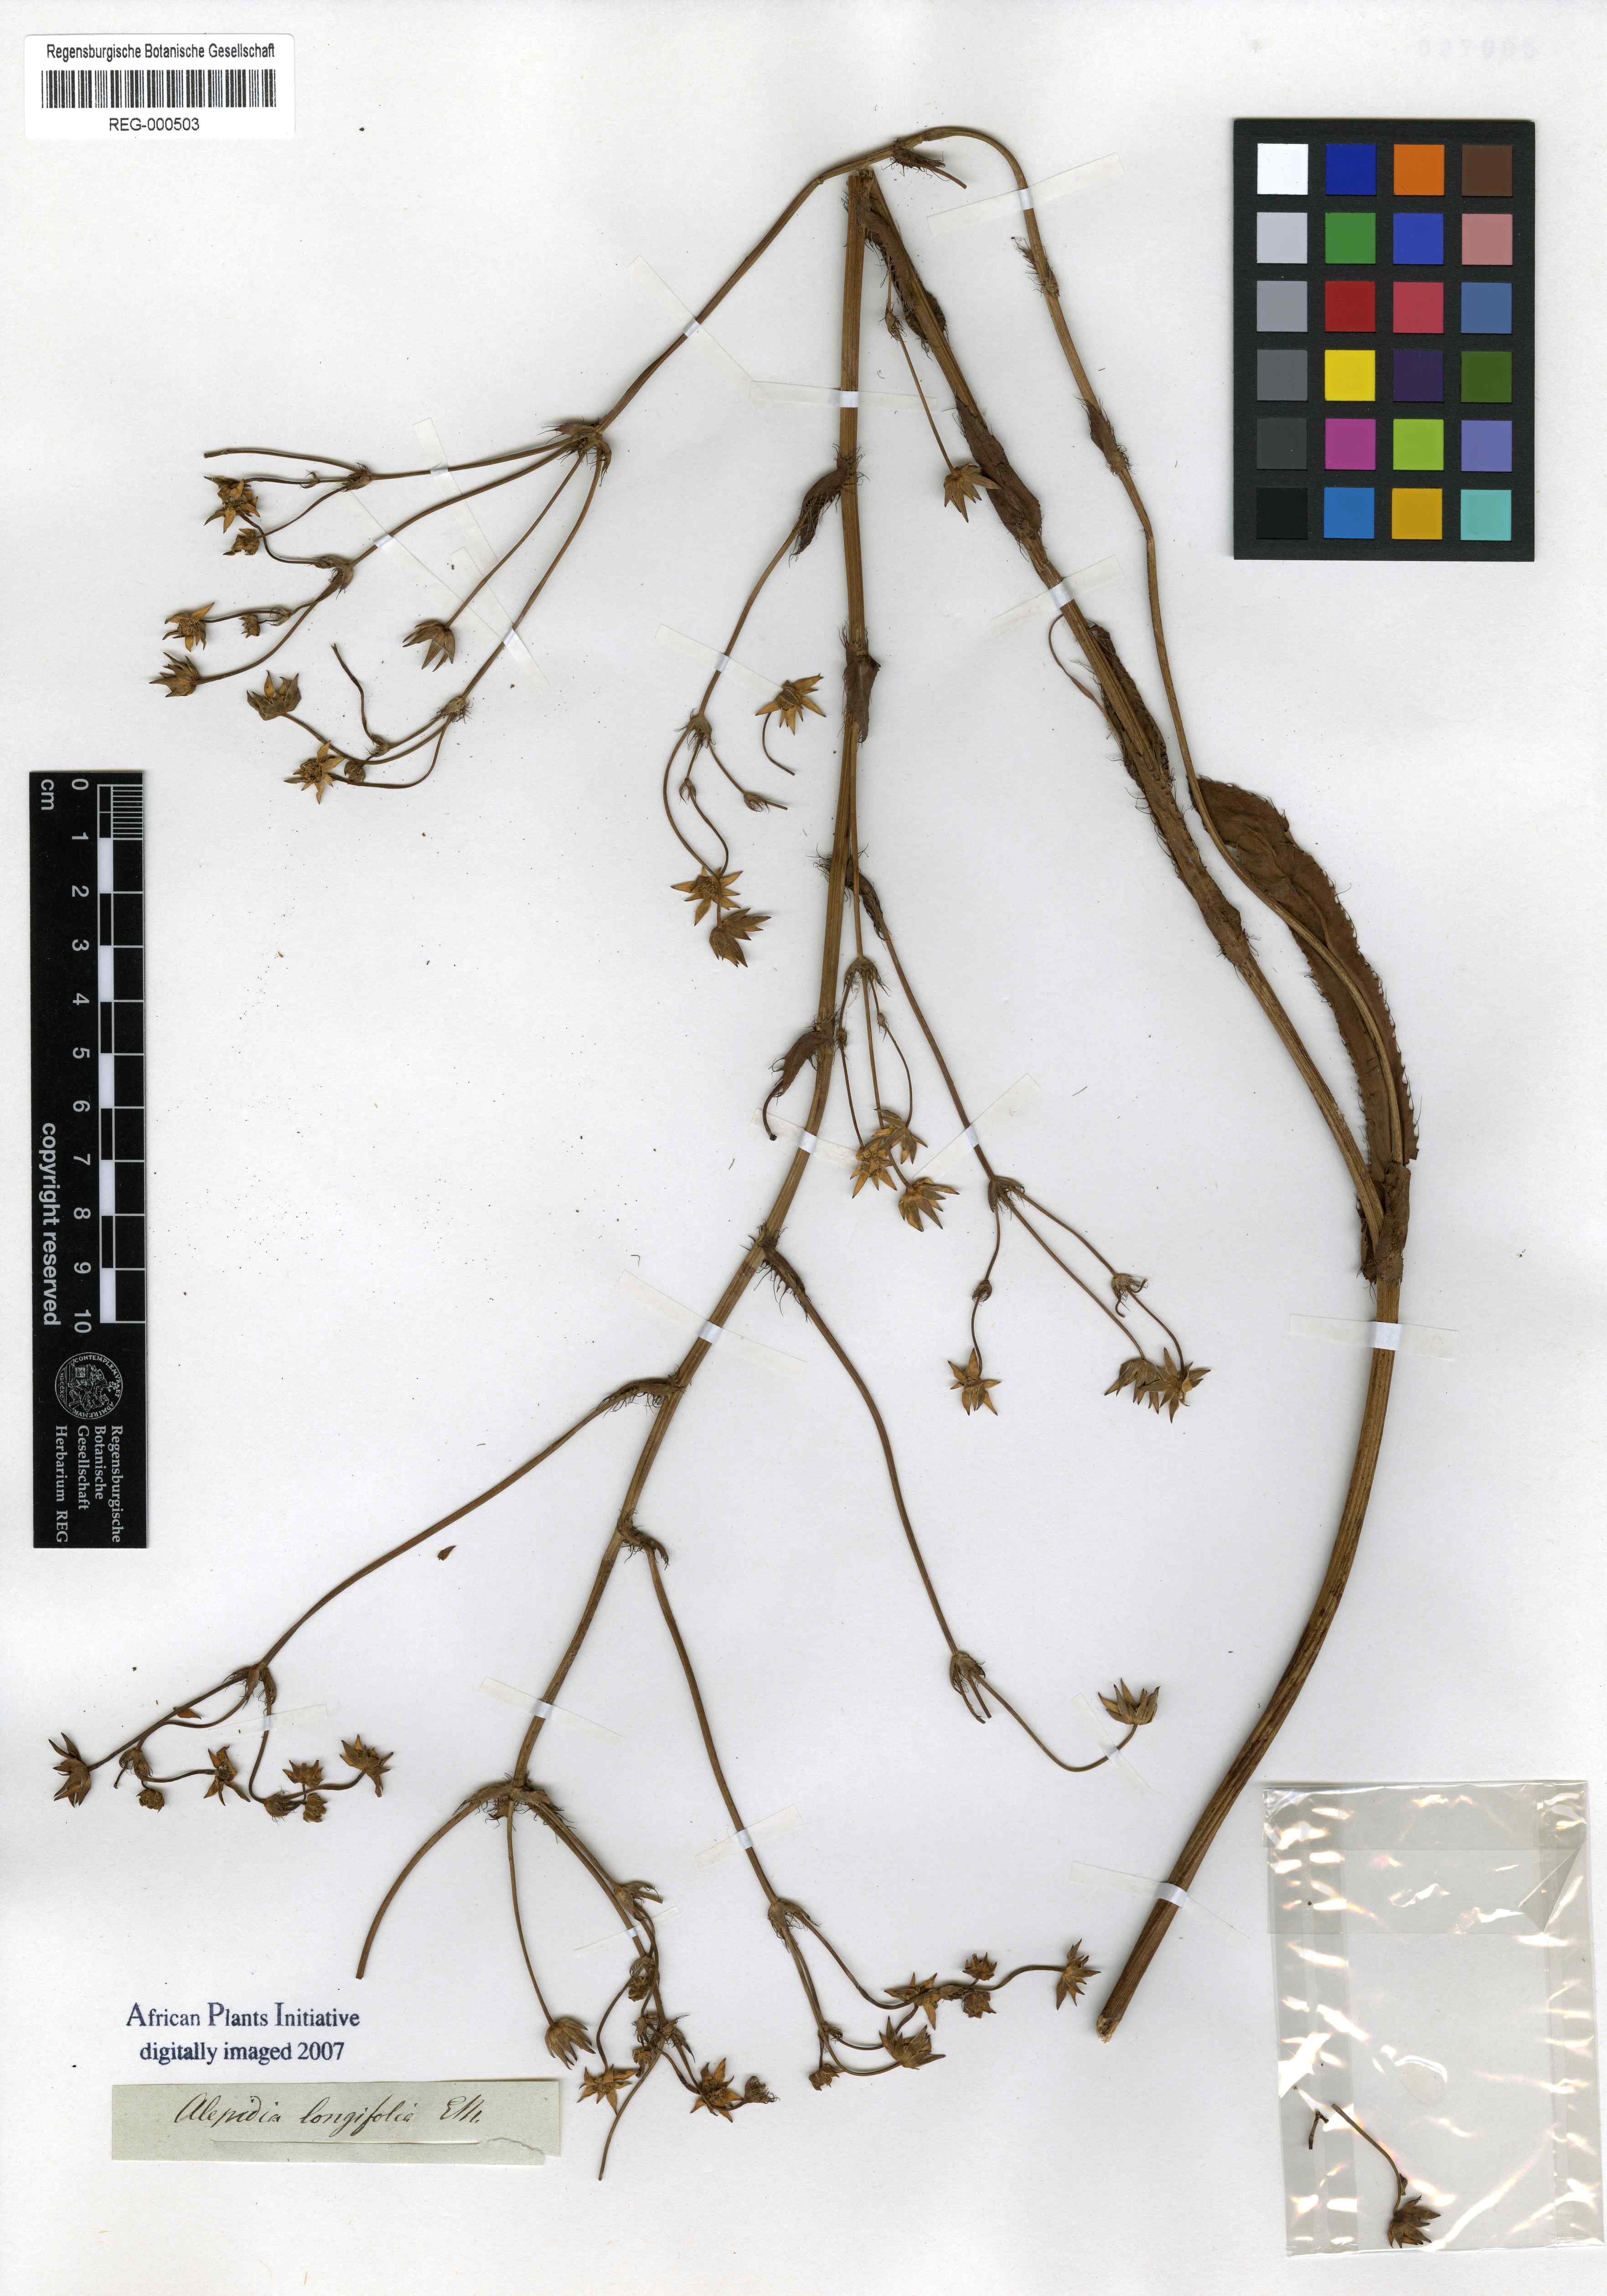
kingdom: Plantae
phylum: Tracheophyta
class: Magnoliopsida
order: Apiales
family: Apiaceae
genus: Alepidea
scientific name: Alepidea peduncularis
